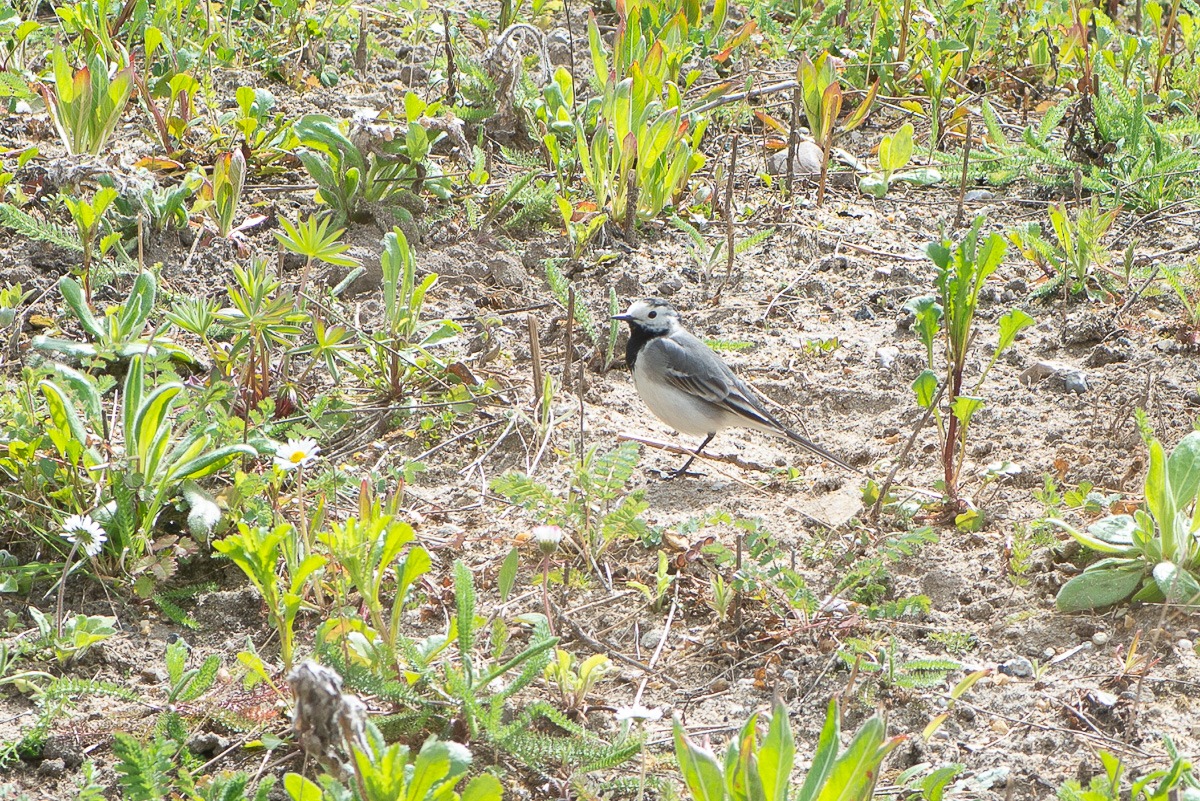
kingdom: Animalia
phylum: Chordata
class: Aves
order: Passeriformes
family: Motacillidae
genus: Motacilla
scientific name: Motacilla alba
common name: Hvid vipstjert
